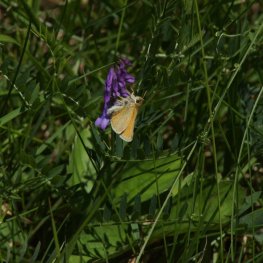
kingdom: Animalia
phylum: Arthropoda
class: Insecta
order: Lepidoptera
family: Hesperiidae
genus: Thymelicus
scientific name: Thymelicus lineola
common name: European Skipper
